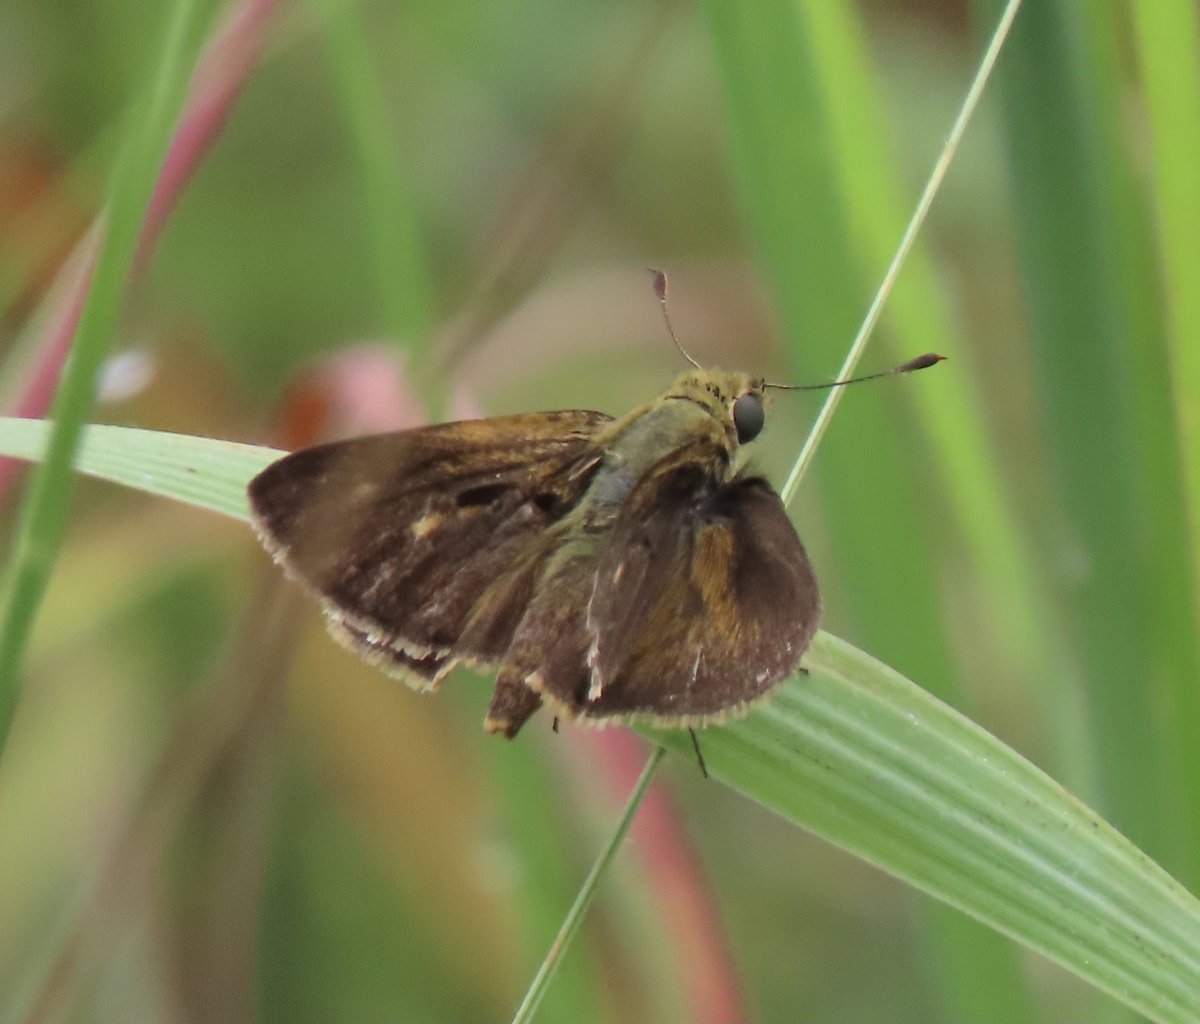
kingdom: Animalia
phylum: Arthropoda
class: Insecta
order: Lepidoptera
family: Hesperiidae
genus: Polites
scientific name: Polites egeremet
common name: Northern Broken-Dash
